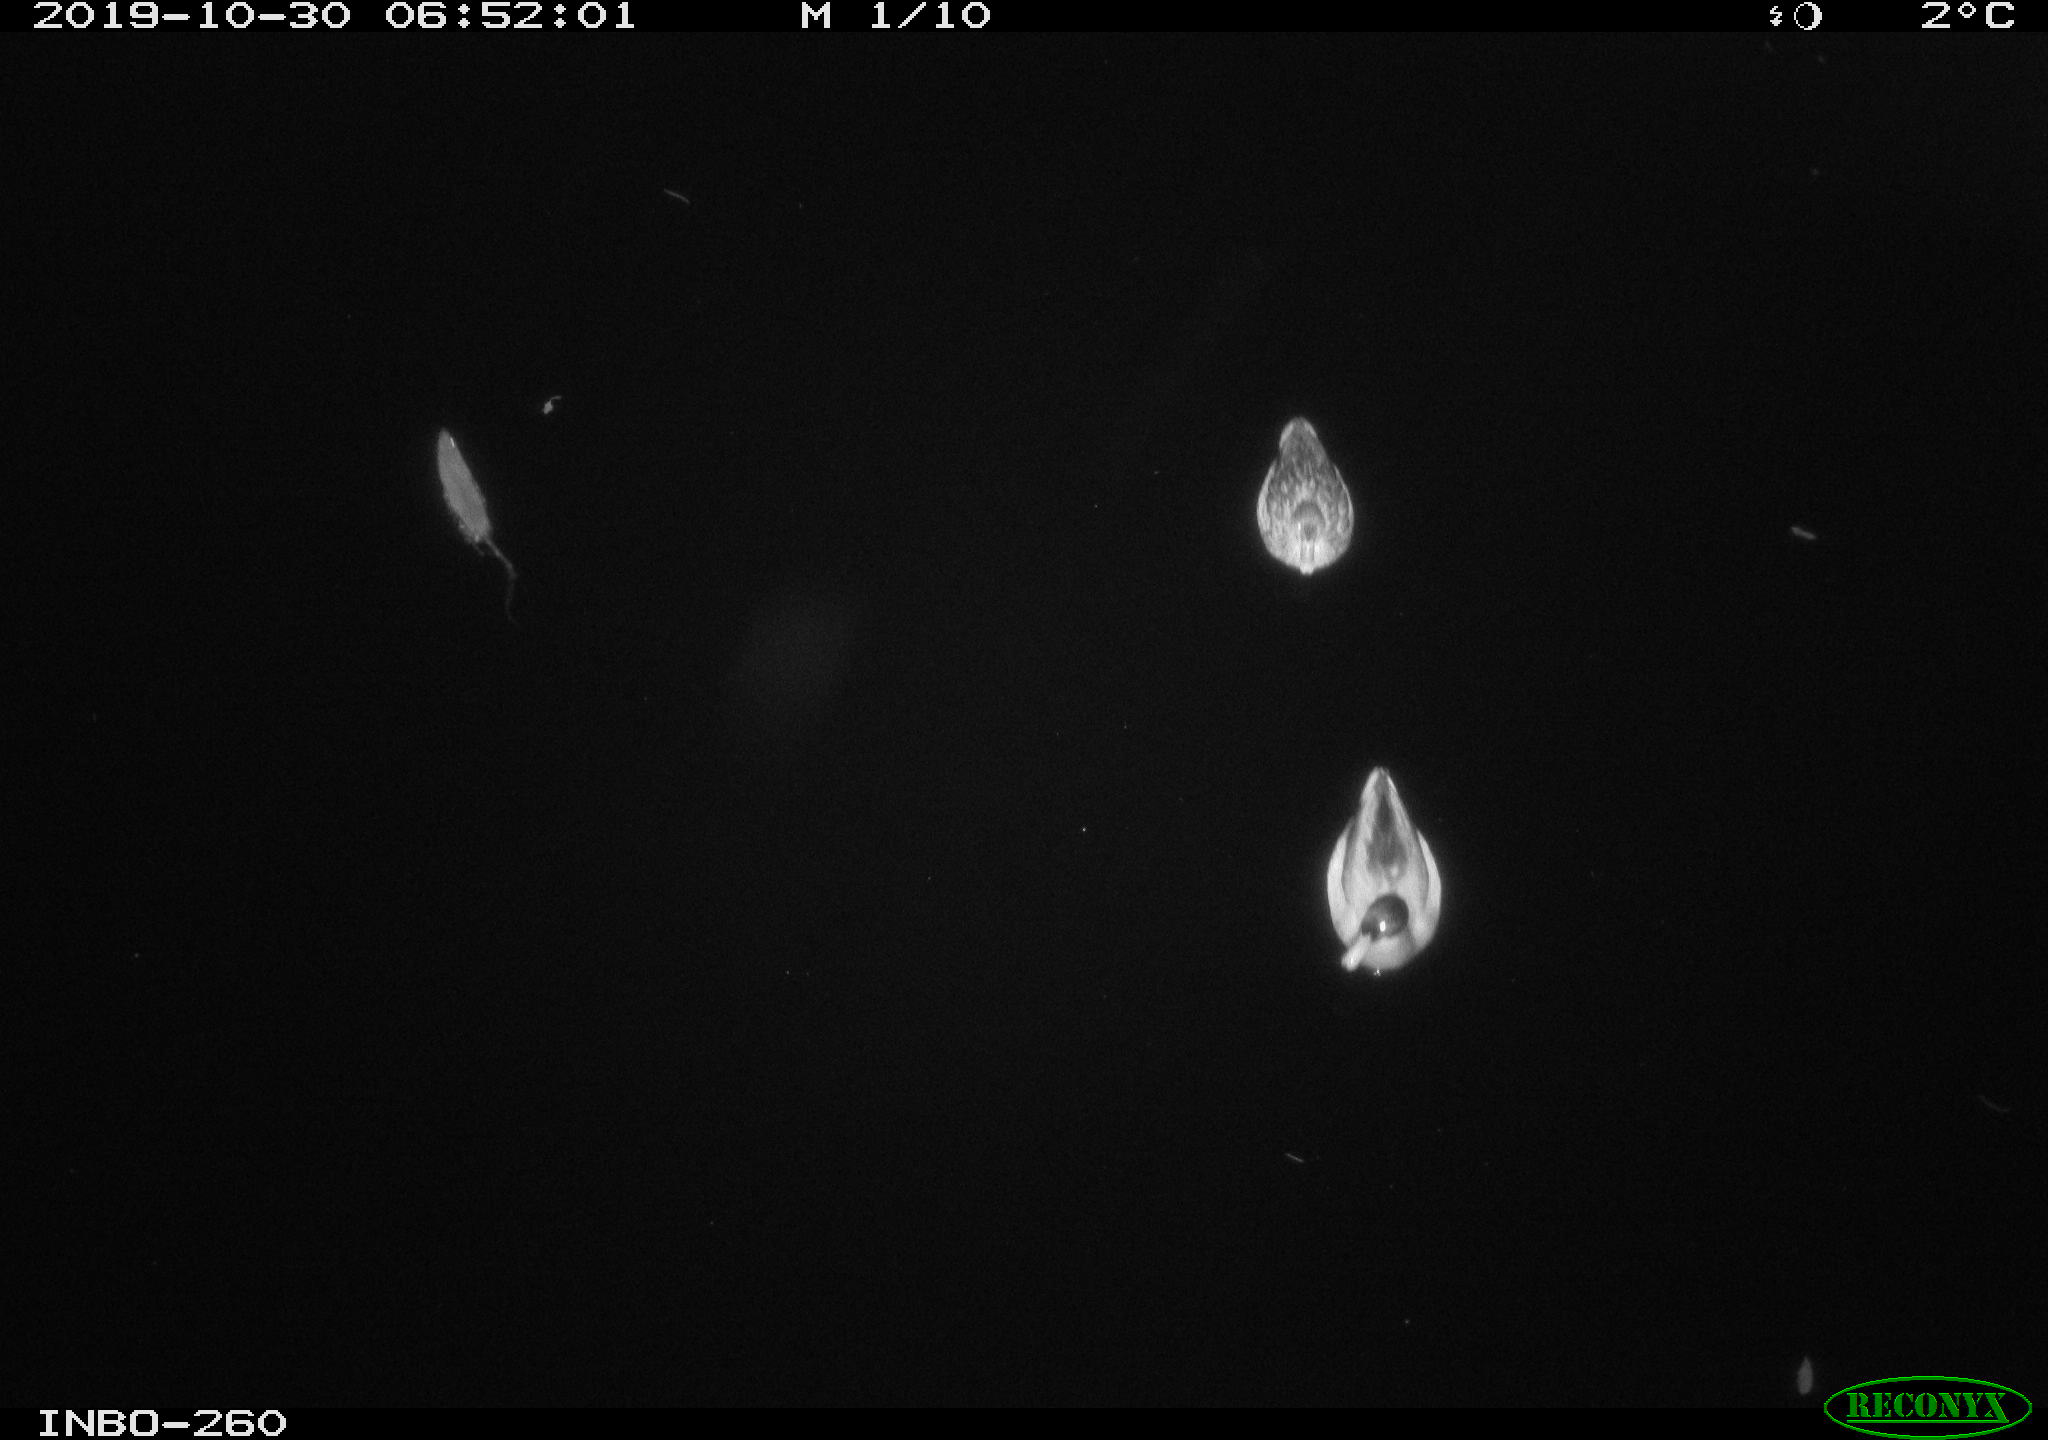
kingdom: Animalia
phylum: Chordata
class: Aves
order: Anseriformes
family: Anatidae
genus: Anas
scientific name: Anas platyrhynchos
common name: Mallard
